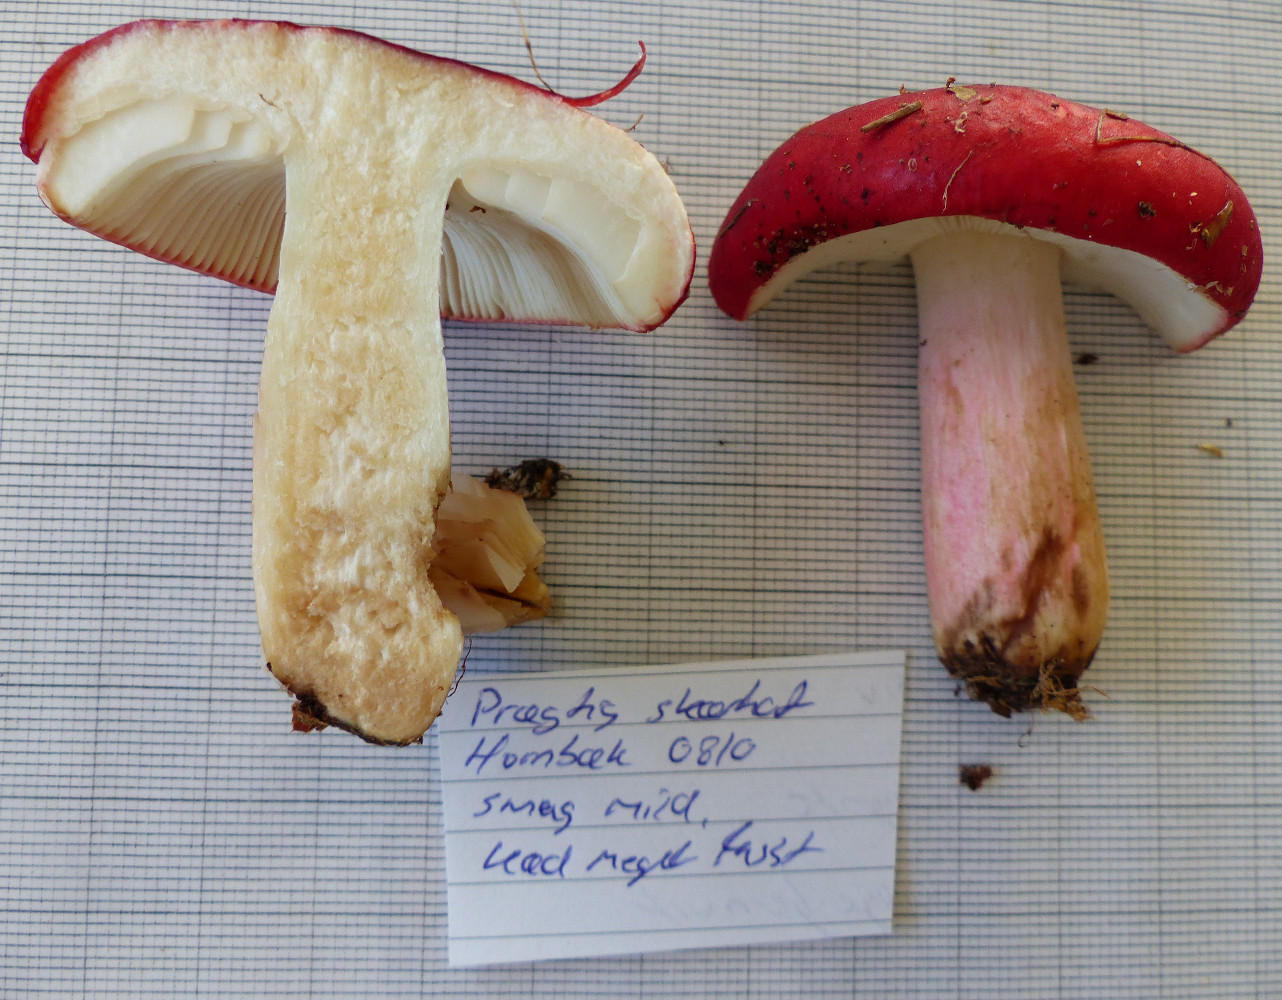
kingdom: Fungi
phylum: Basidiomycota
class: Agaricomycetes
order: Russulales
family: Russulaceae
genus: Russula
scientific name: Russula paludosa
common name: prægtig skørhat
